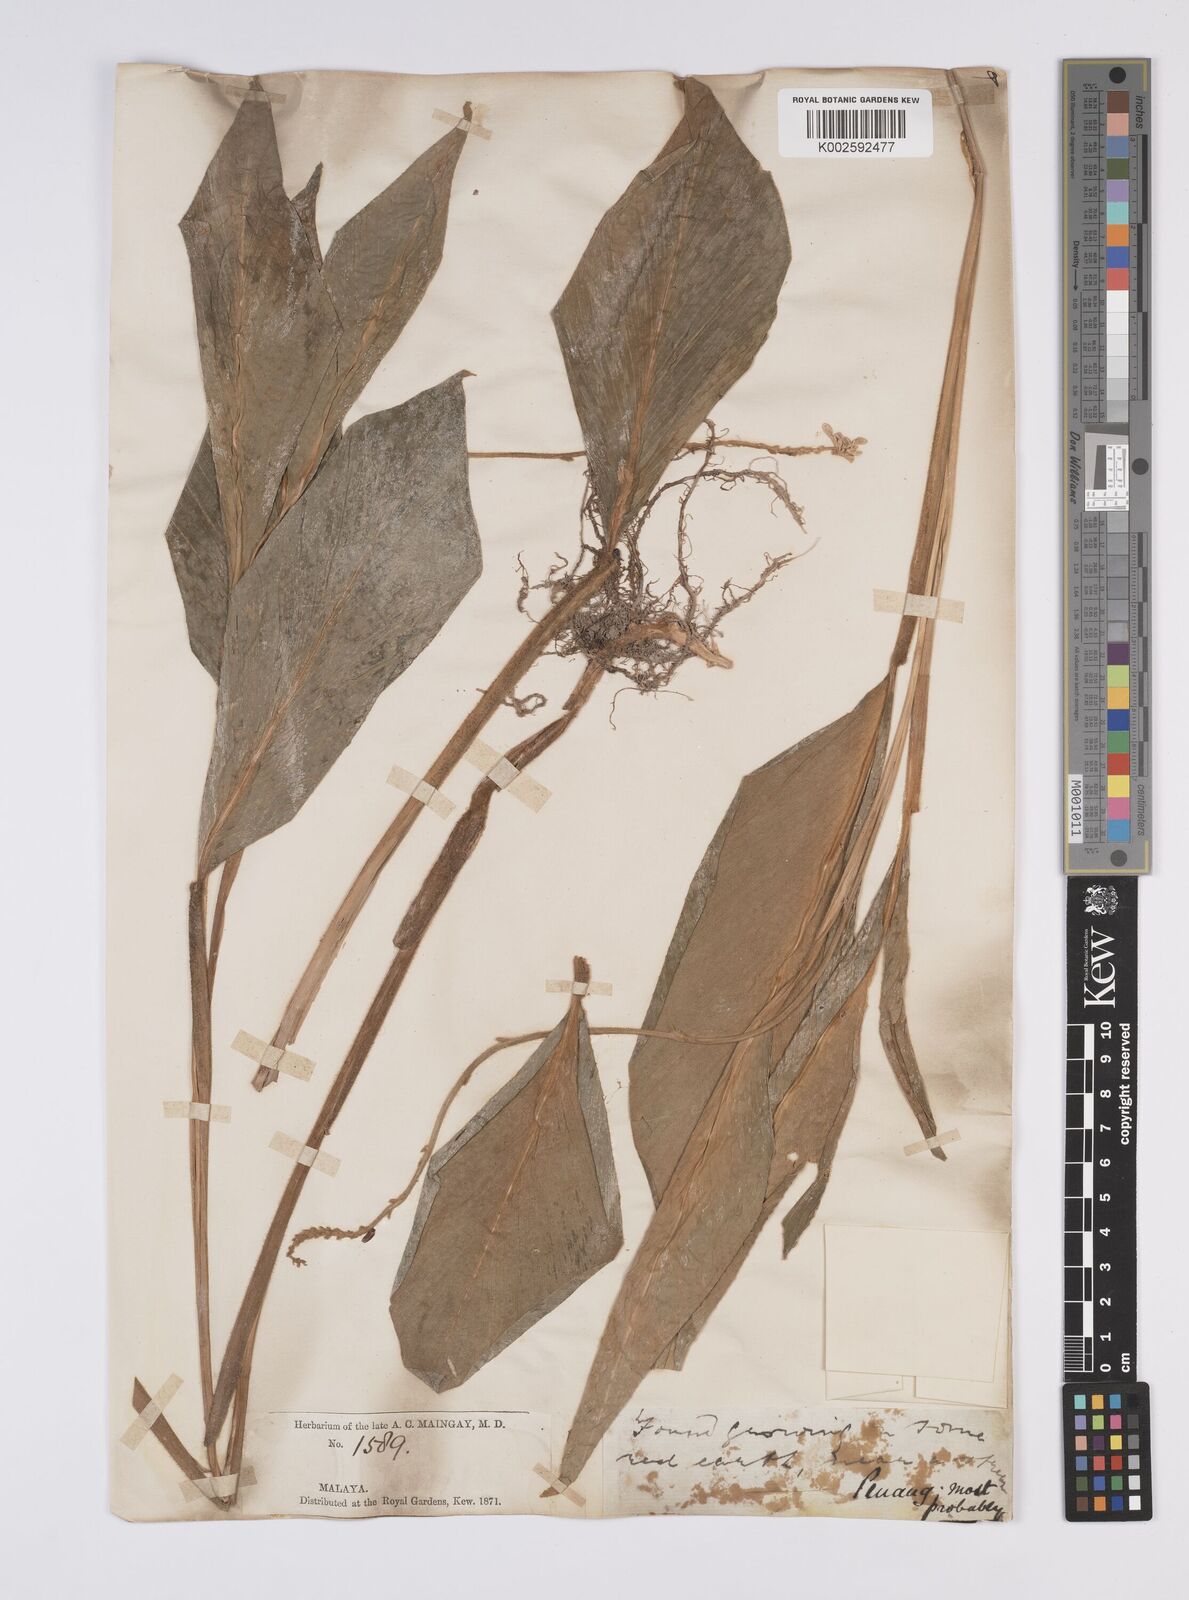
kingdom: Plantae
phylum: Tracheophyta
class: Liliopsida
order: Zingiberales
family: Zingiberaceae
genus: Globba
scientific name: Globba aurantiaca
